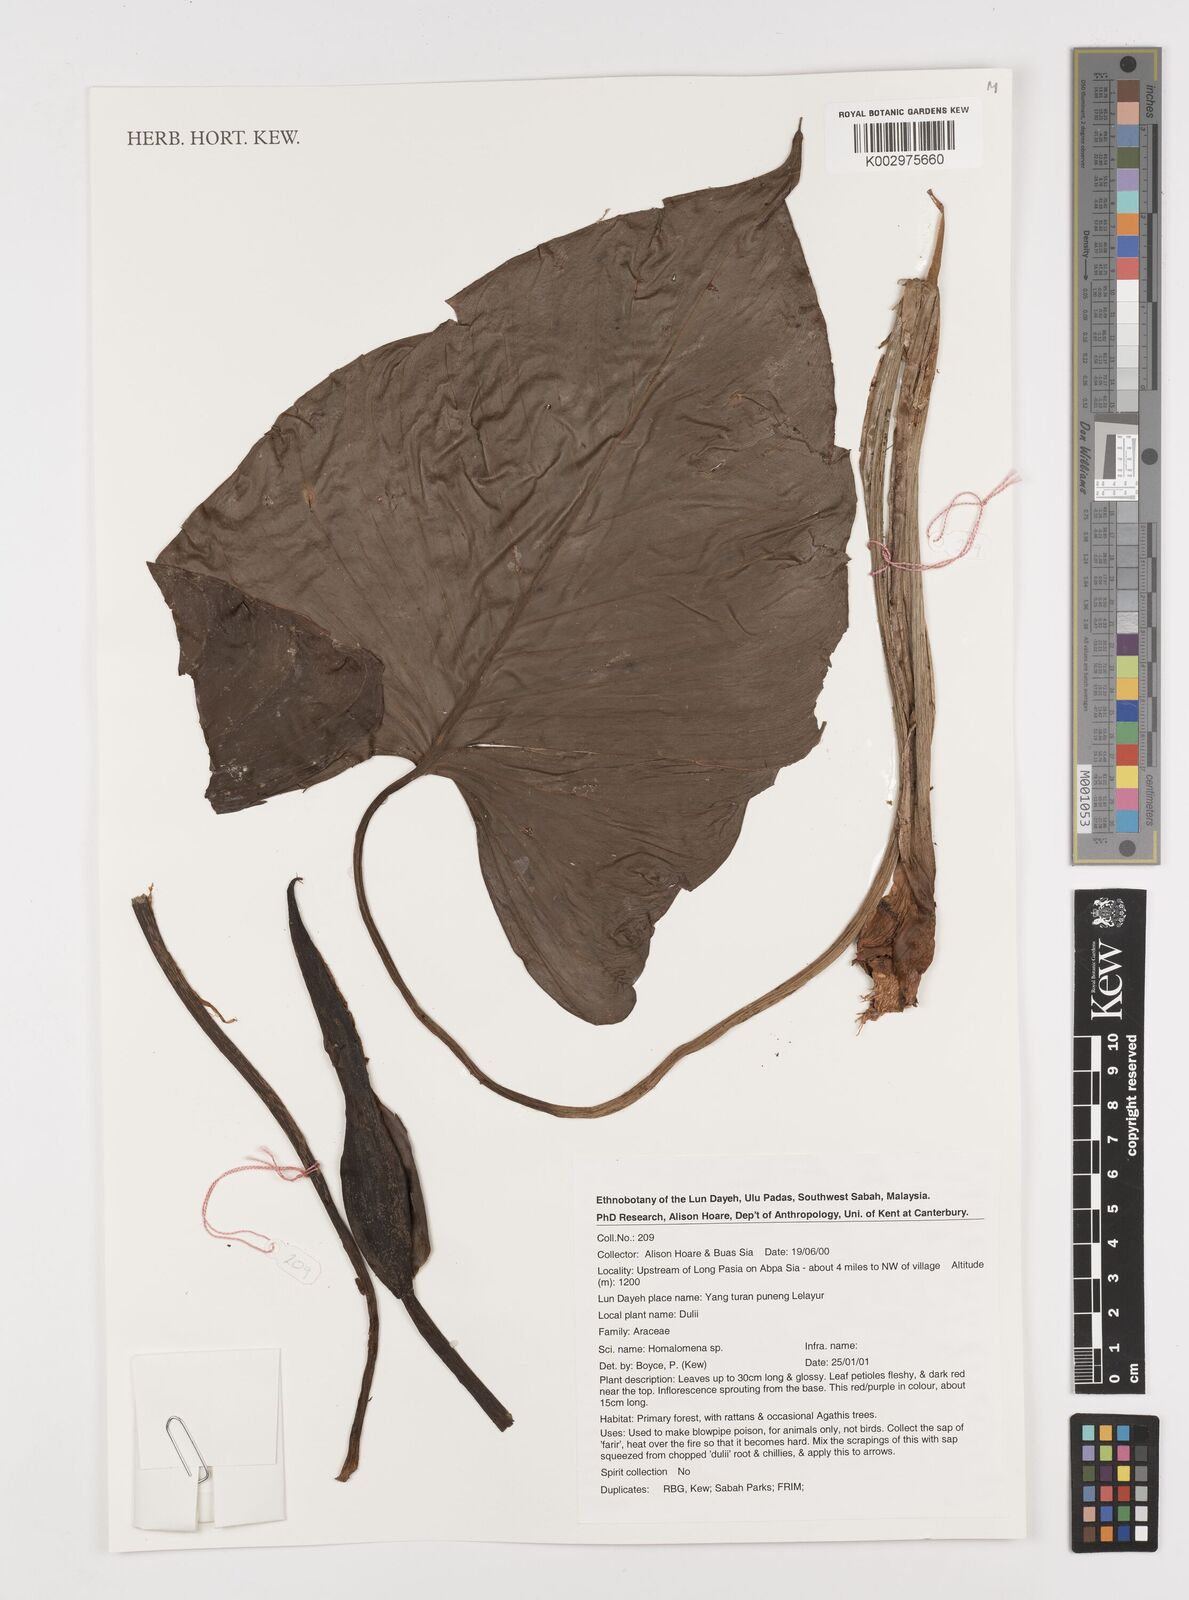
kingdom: Plantae
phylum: Tracheophyta
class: Liliopsida
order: Alismatales
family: Araceae
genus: Homalomena
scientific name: Homalomena
